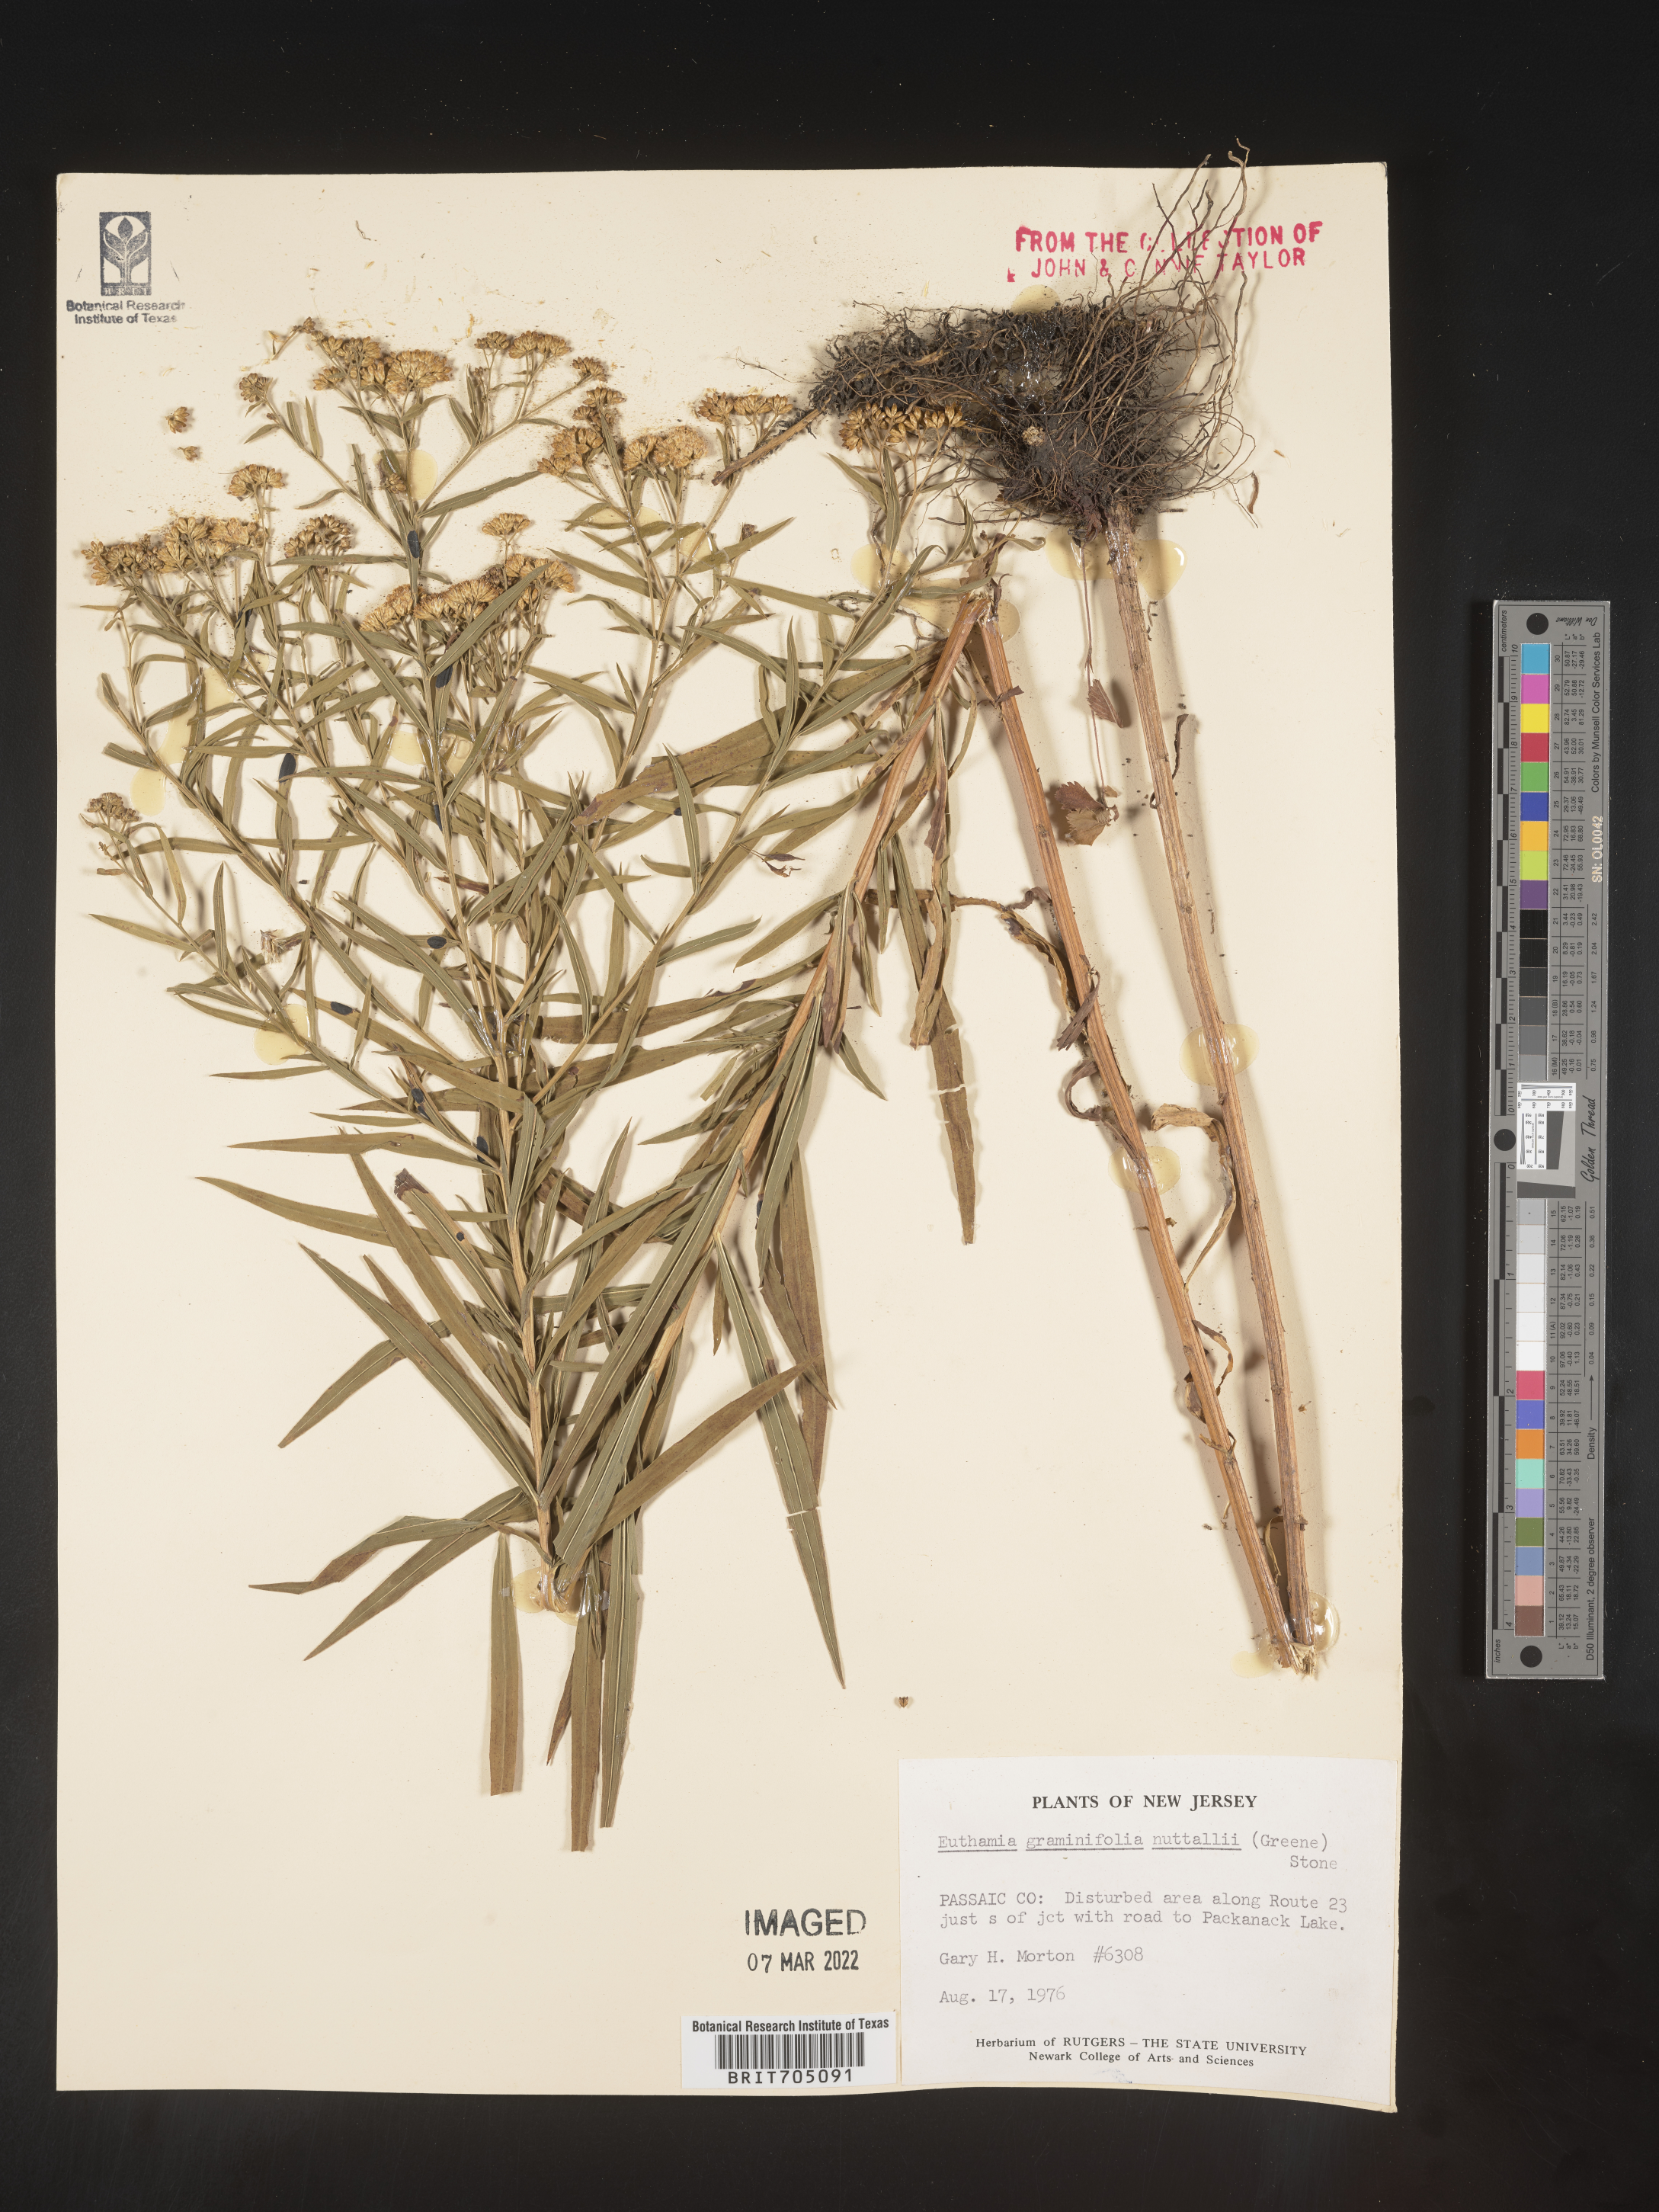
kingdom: Plantae
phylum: Tracheophyta
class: Magnoliopsida
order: Asterales
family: Asteraceae
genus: Euthamia
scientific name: Euthamia graminifolia
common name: Common goldentop
